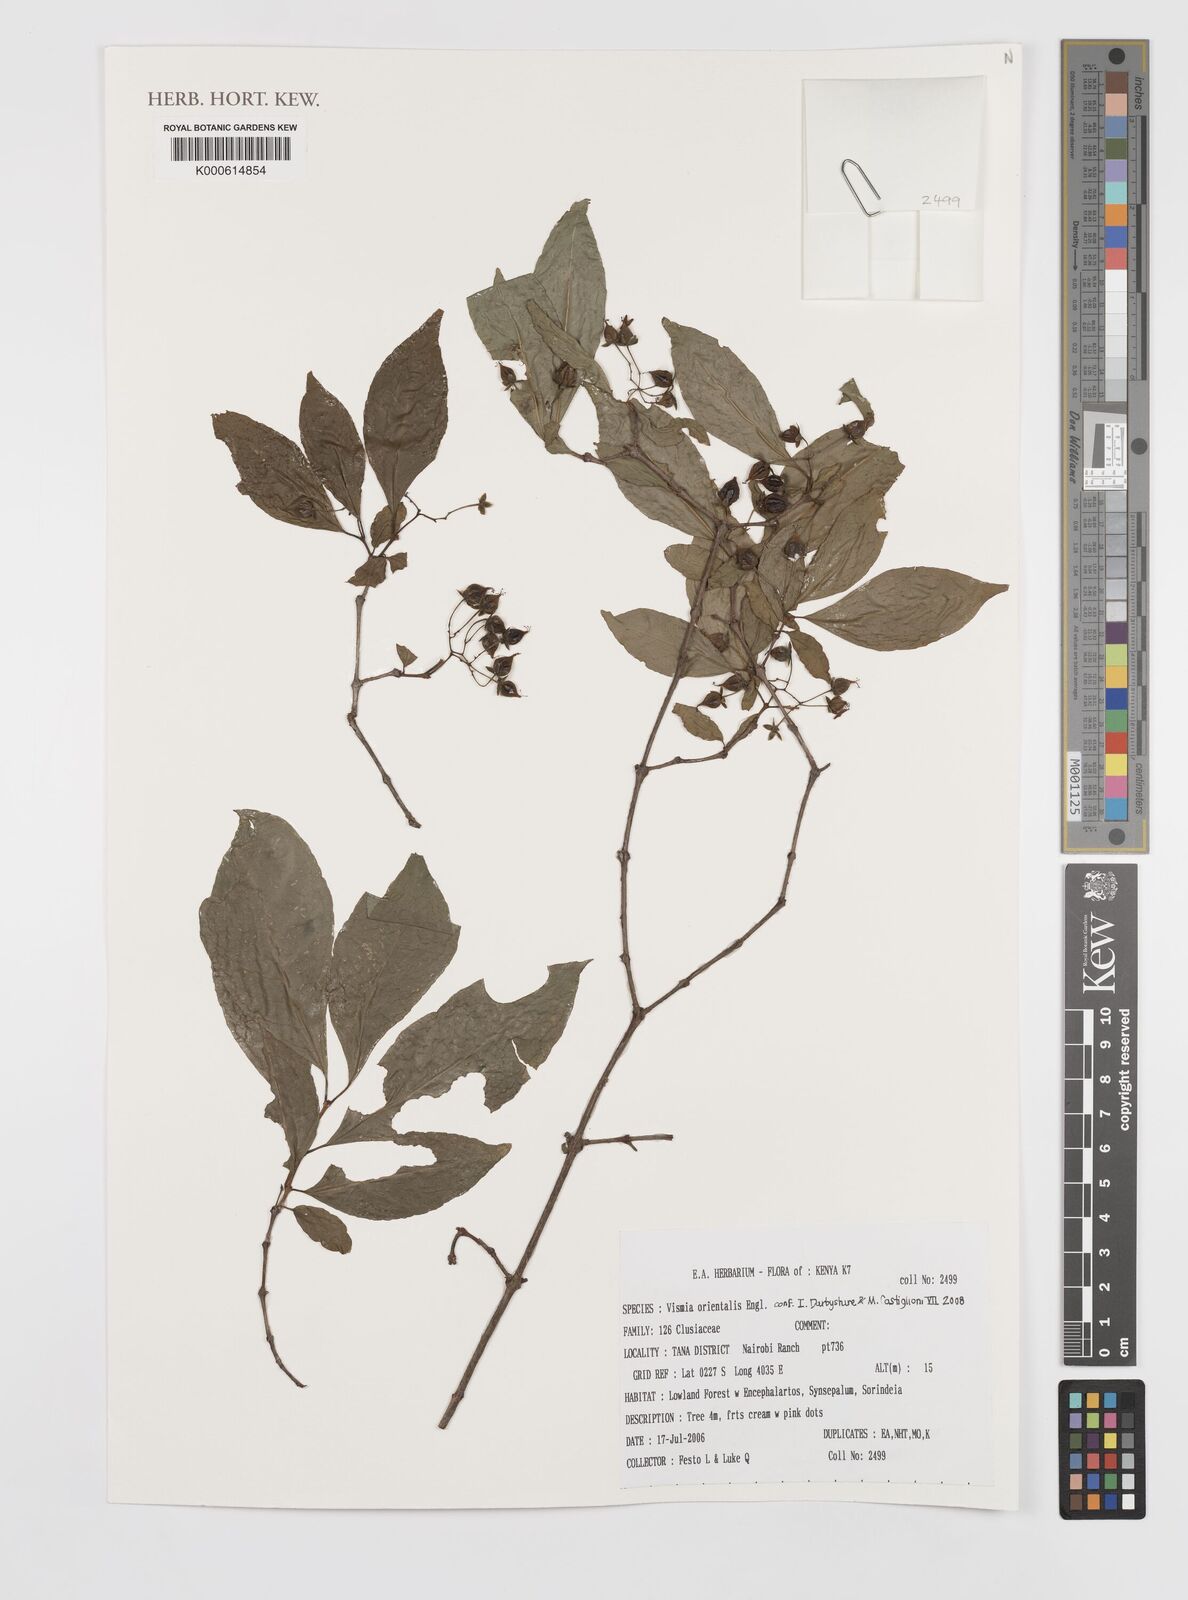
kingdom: Plantae
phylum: Tracheophyta
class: Magnoliopsida
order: Malpighiales
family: Hypericaceae
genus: Psorospermum
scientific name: Psorospermum orientale
